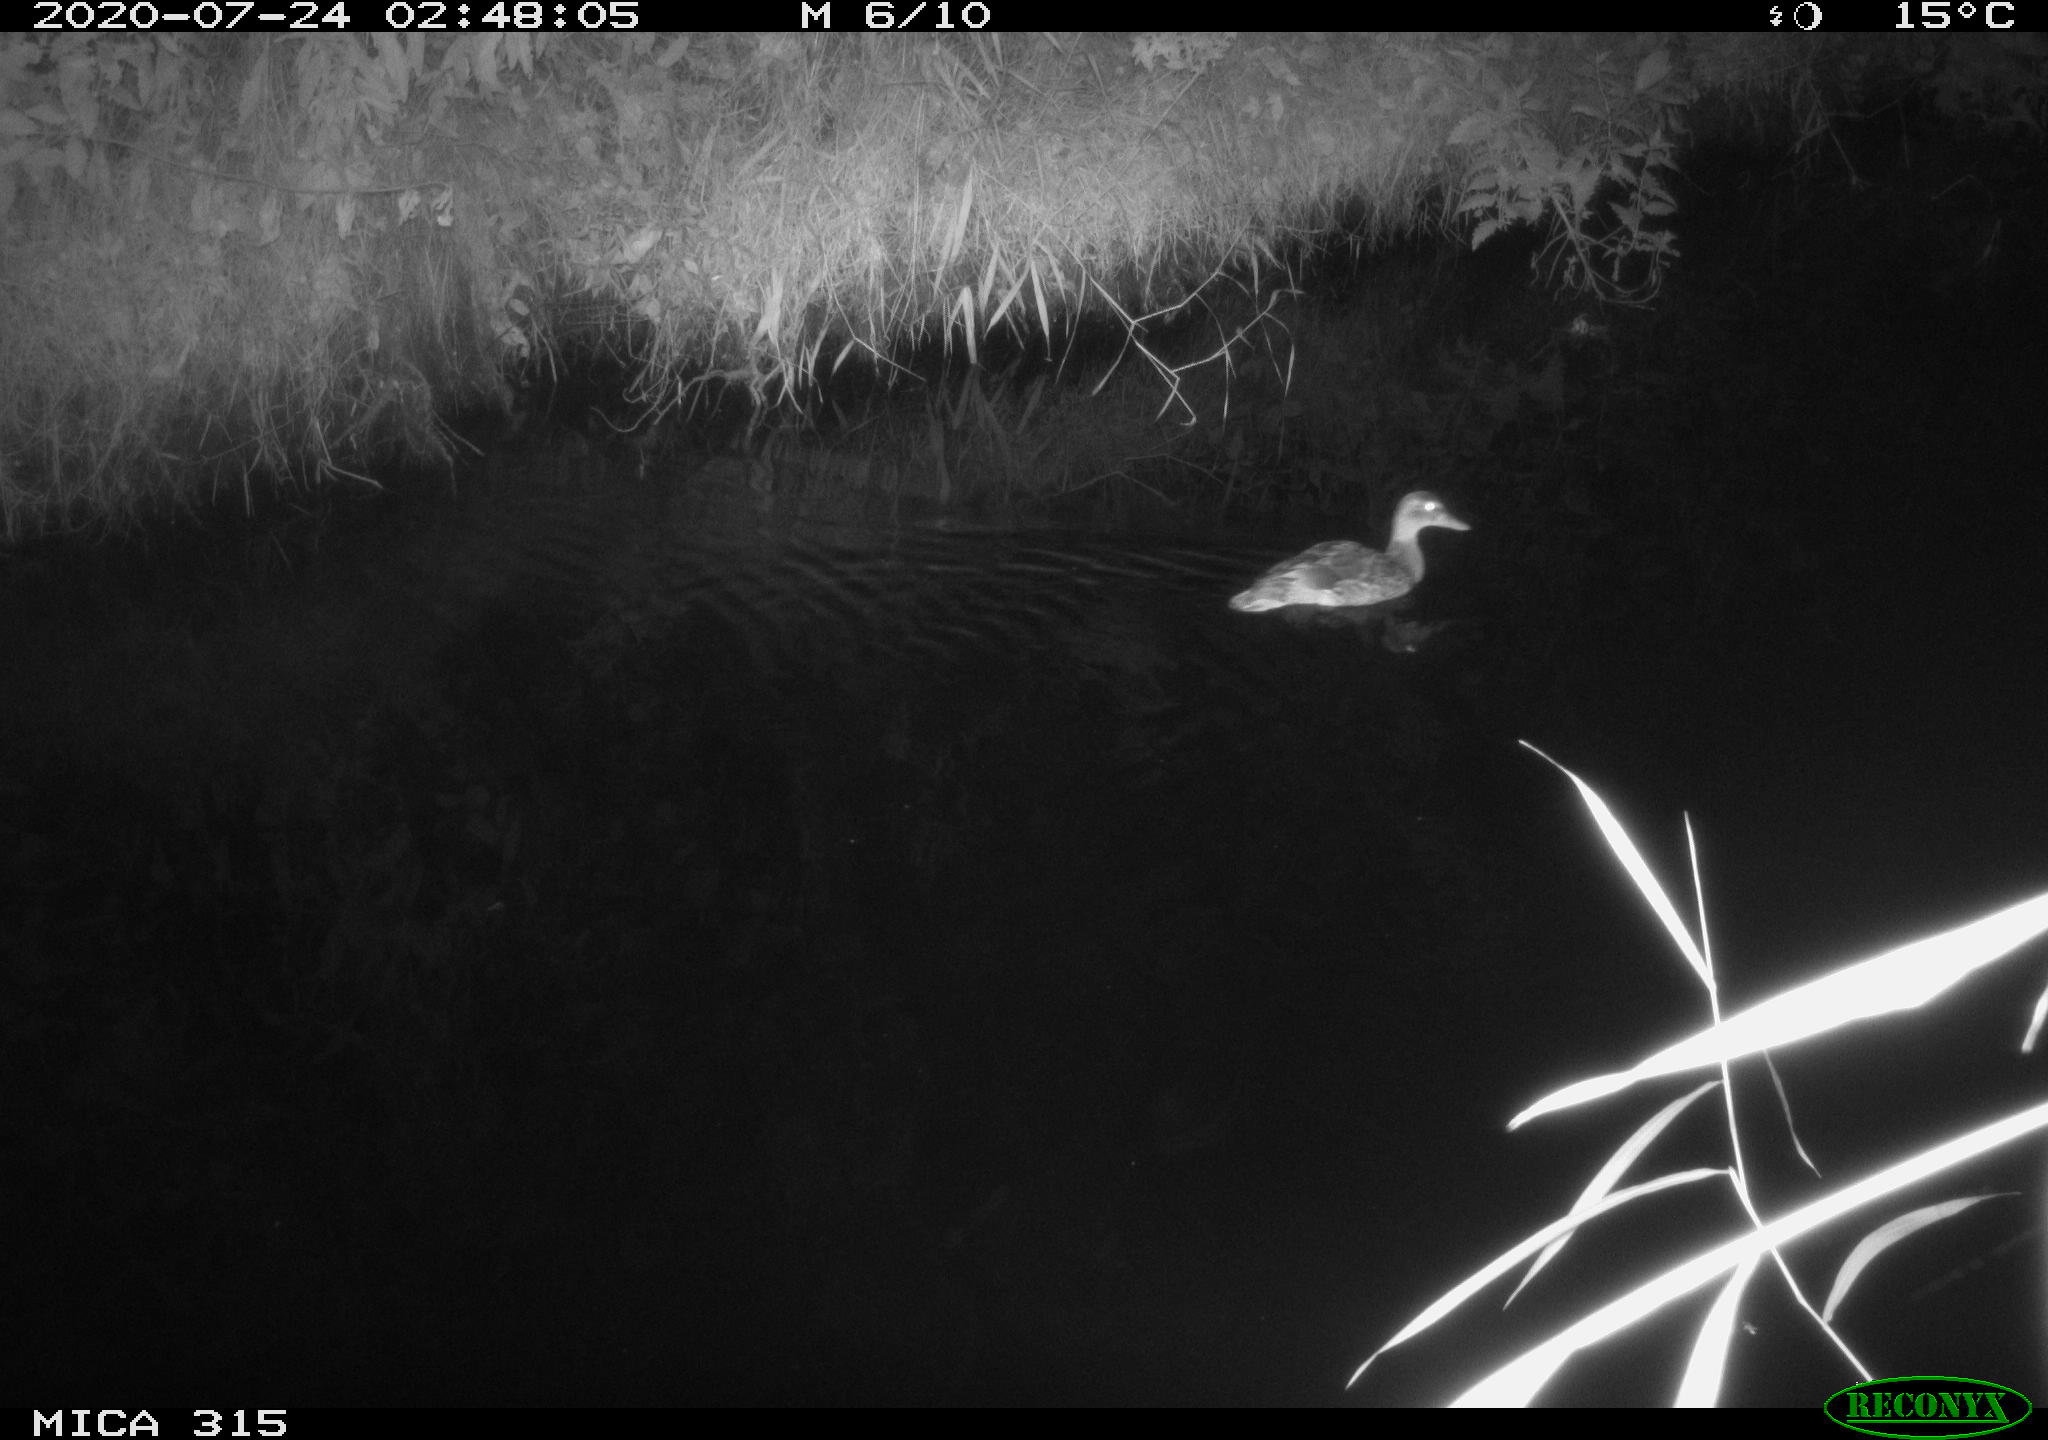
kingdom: Animalia
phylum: Chordata
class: Aves
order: Anseriformes
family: Anatidae
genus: Anas
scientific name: Anas platyrhynchos
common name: Mallard
